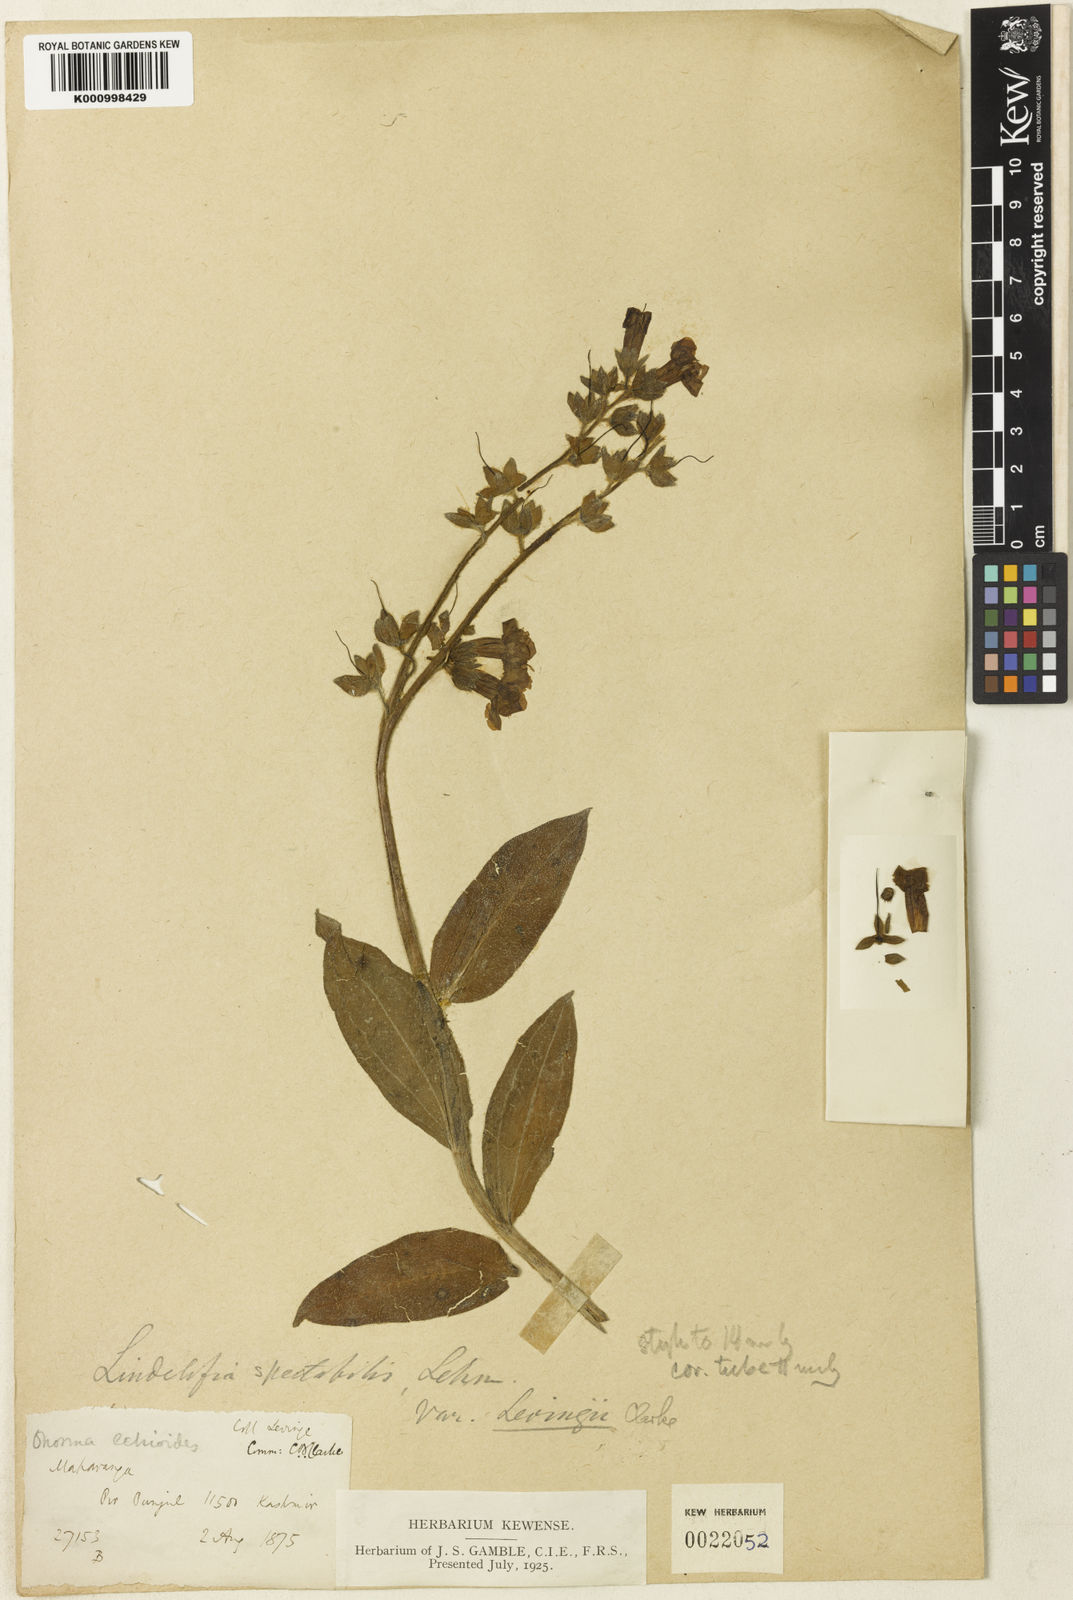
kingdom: Plantae
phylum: Tracheophyta
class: Magnoliopsida
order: Boraginales
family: Boraginaceae
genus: Lindelofia
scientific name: Lindelofia longiflora
